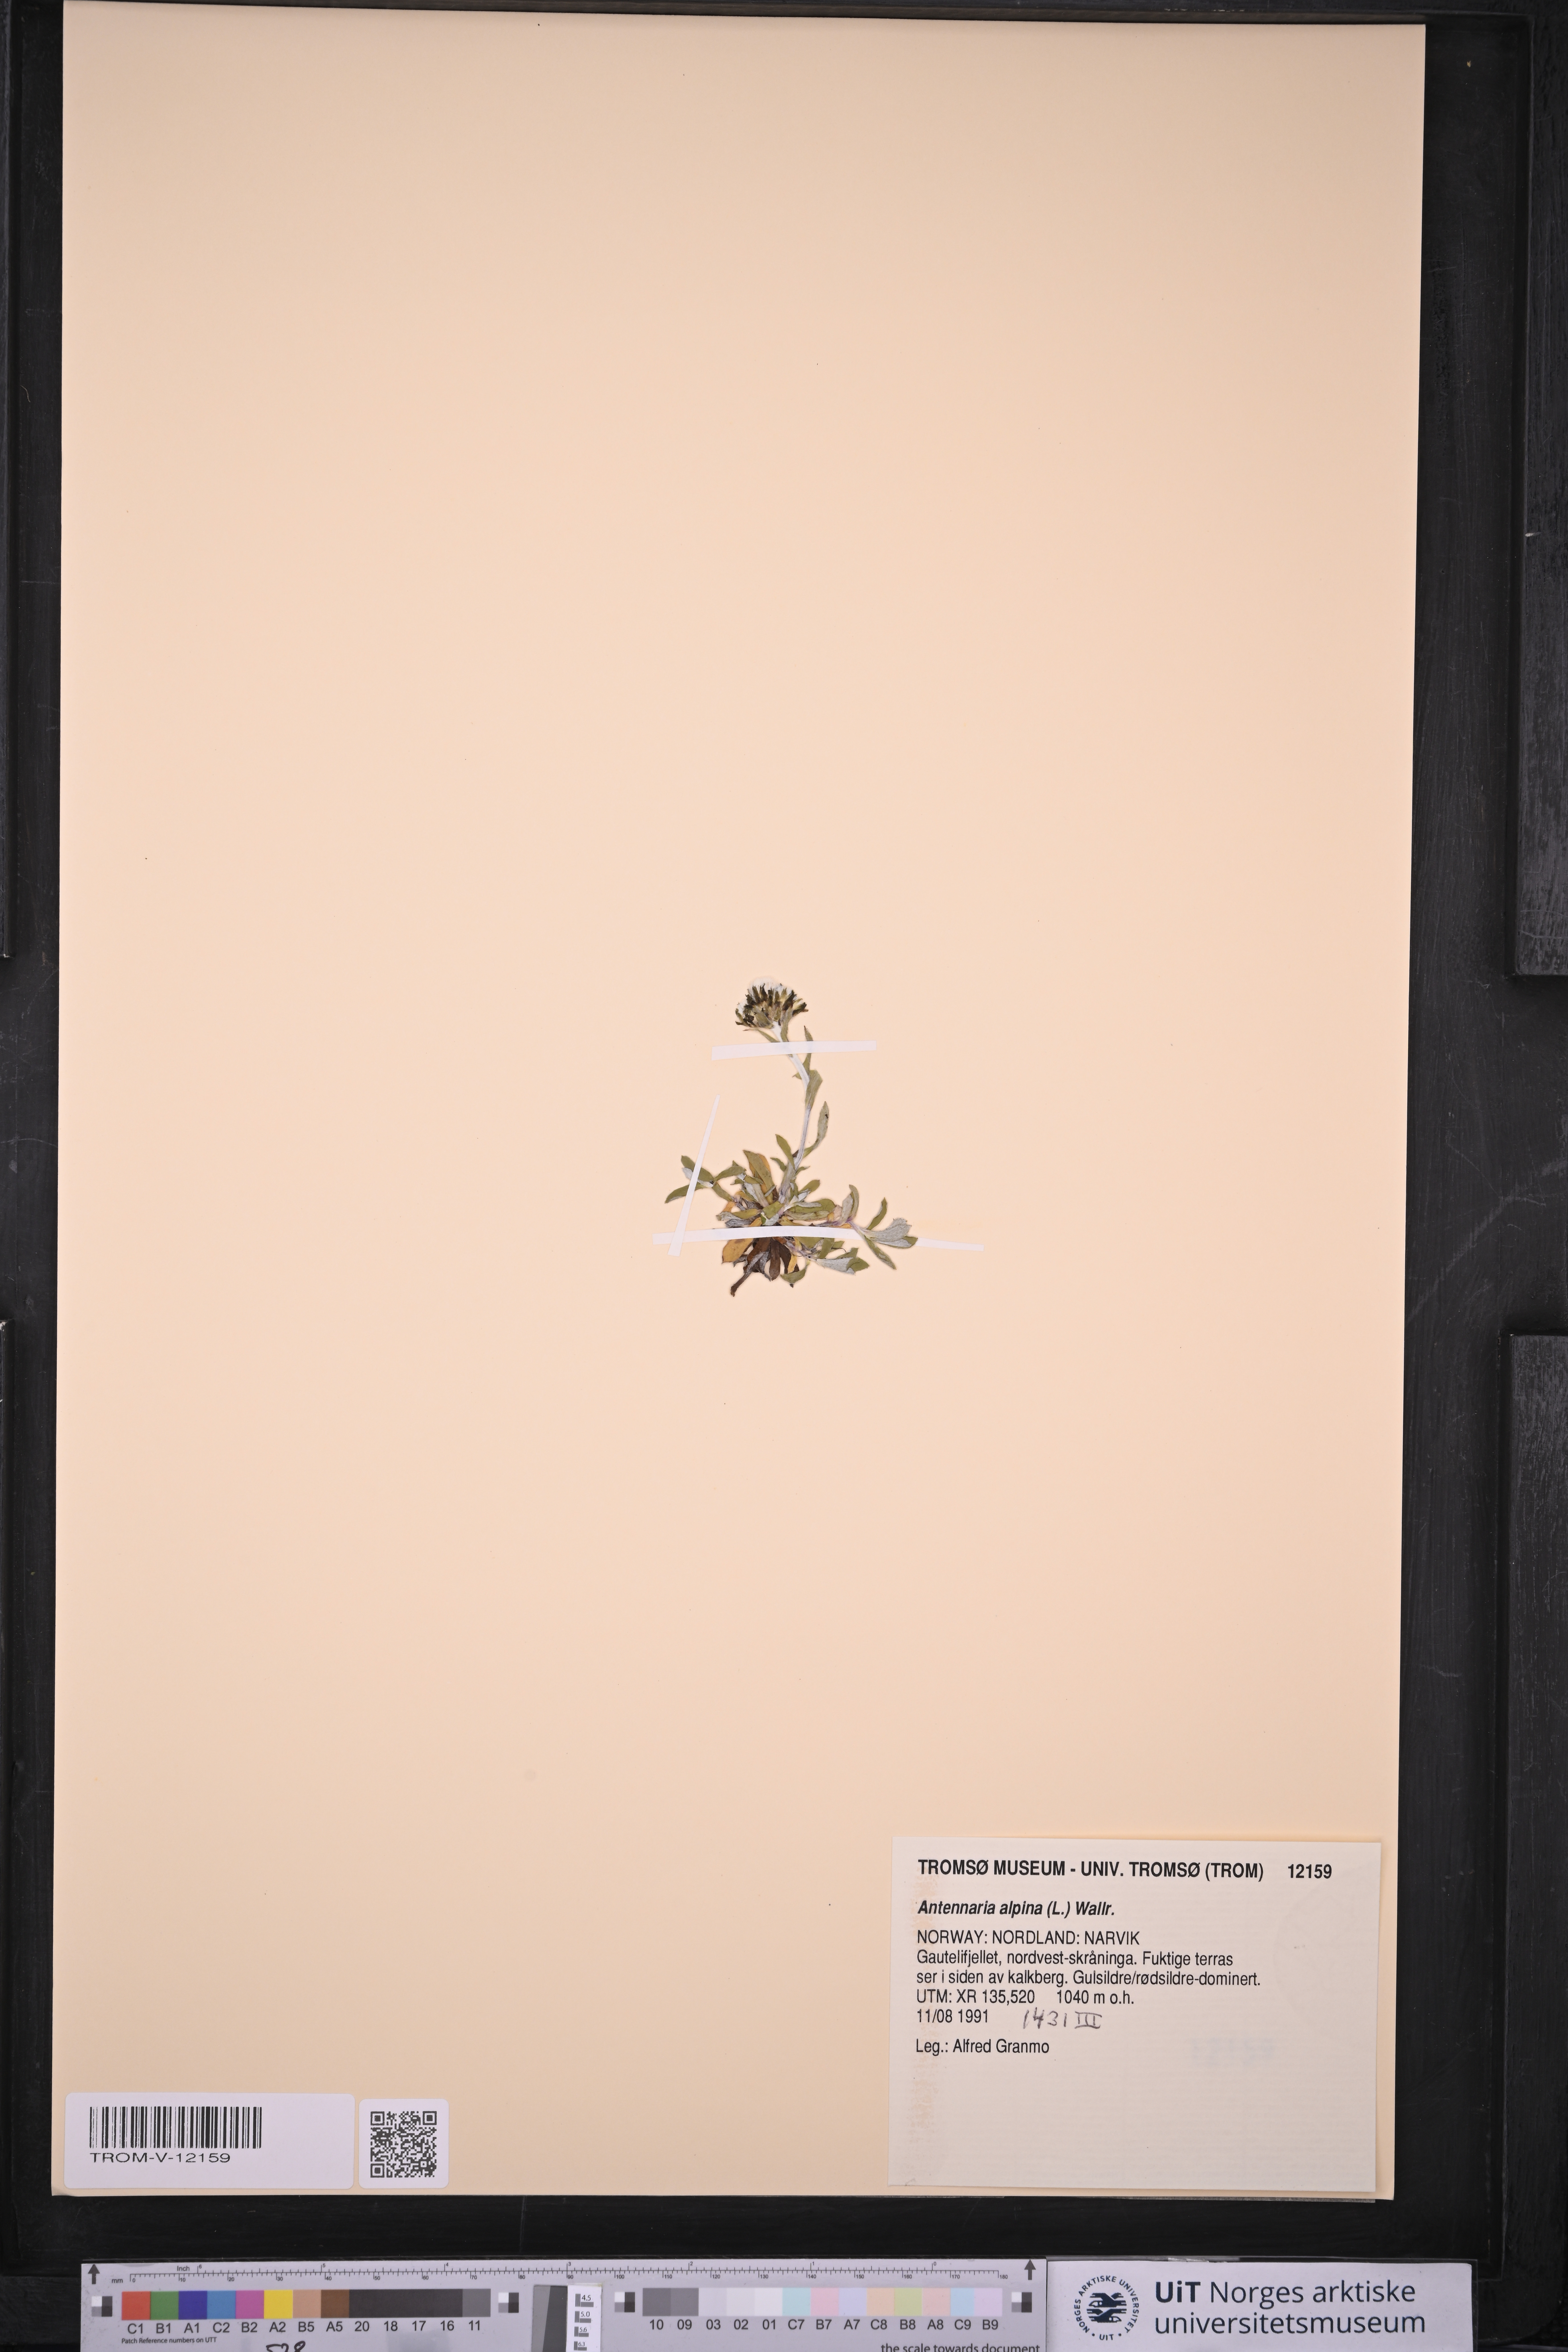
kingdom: Plantae
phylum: Tracheophyta
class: Magnoliopsida
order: Asterales
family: Asteraceae
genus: Antennaria
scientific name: Antennaria alpina
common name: Alpine pussytoes
